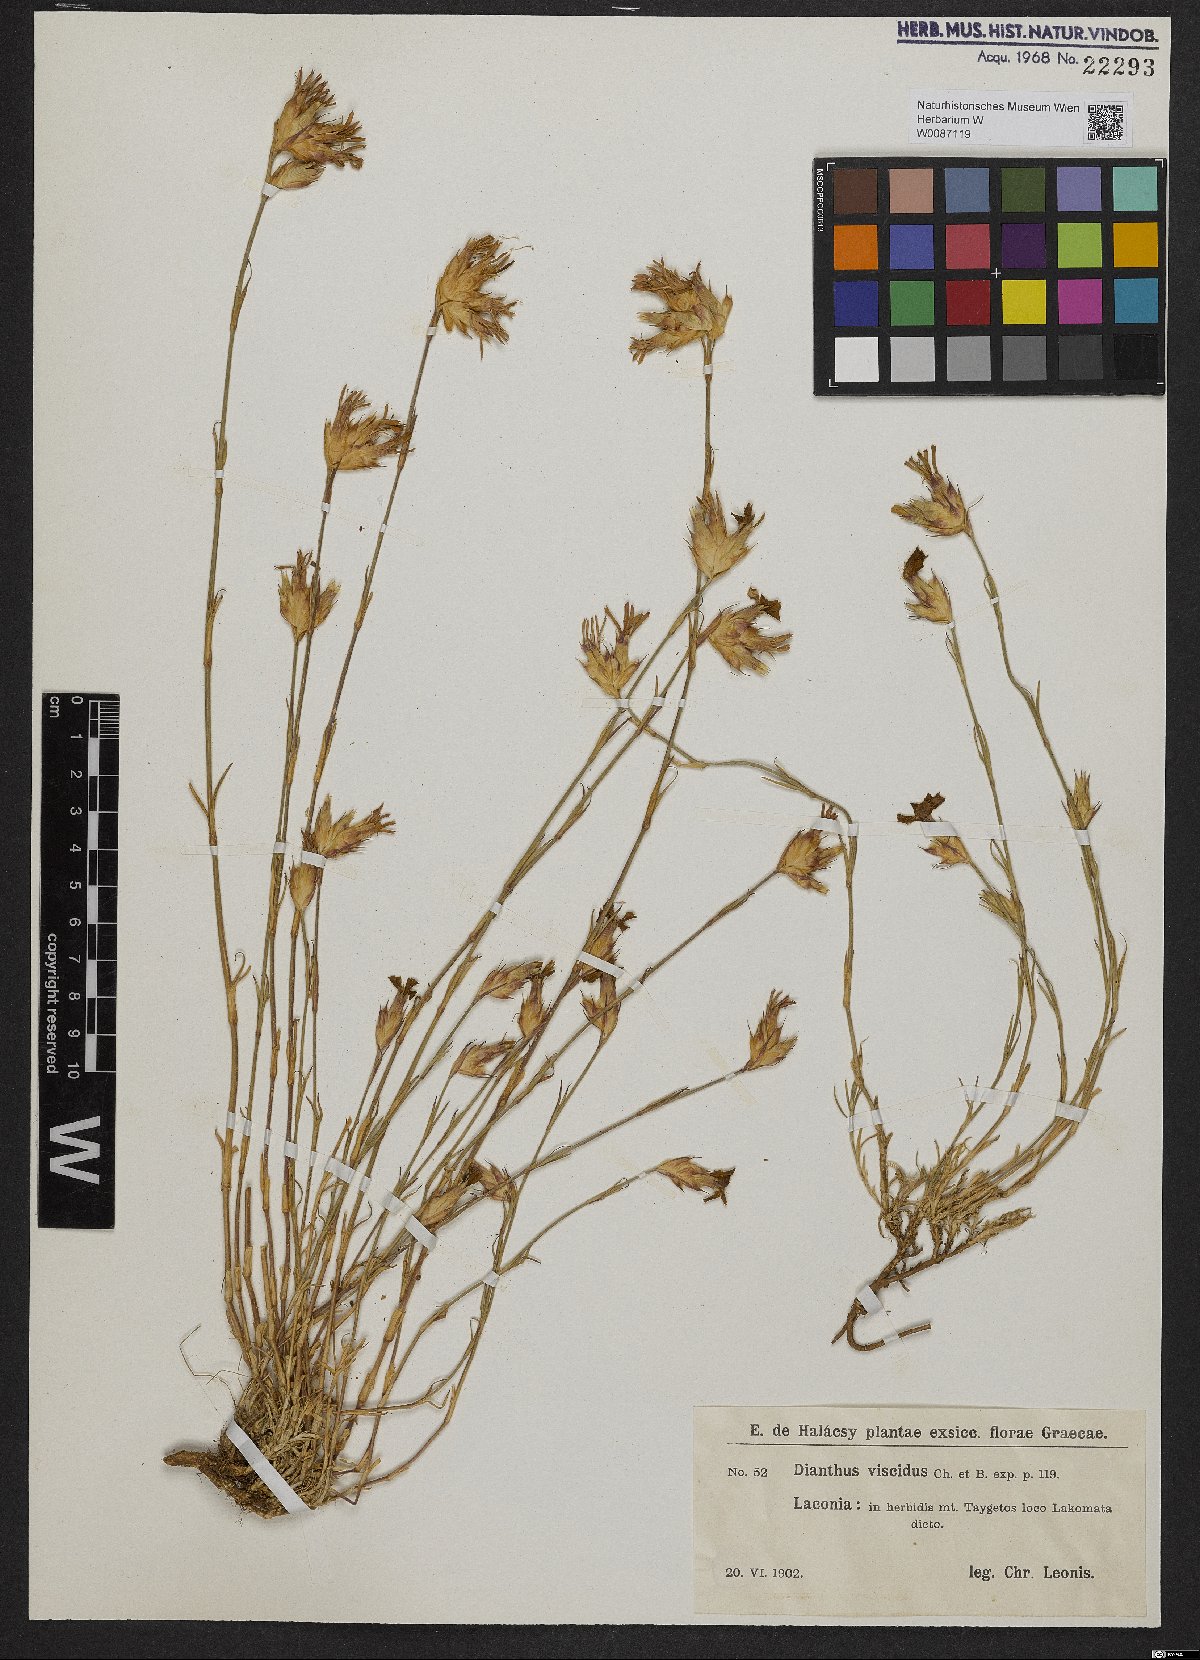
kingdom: Plantae
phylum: Tracheophyta
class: Magnoliopsida
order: Caryophyllales
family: Caryophyllaceae
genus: Dianthus
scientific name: Dianthus viscidus
